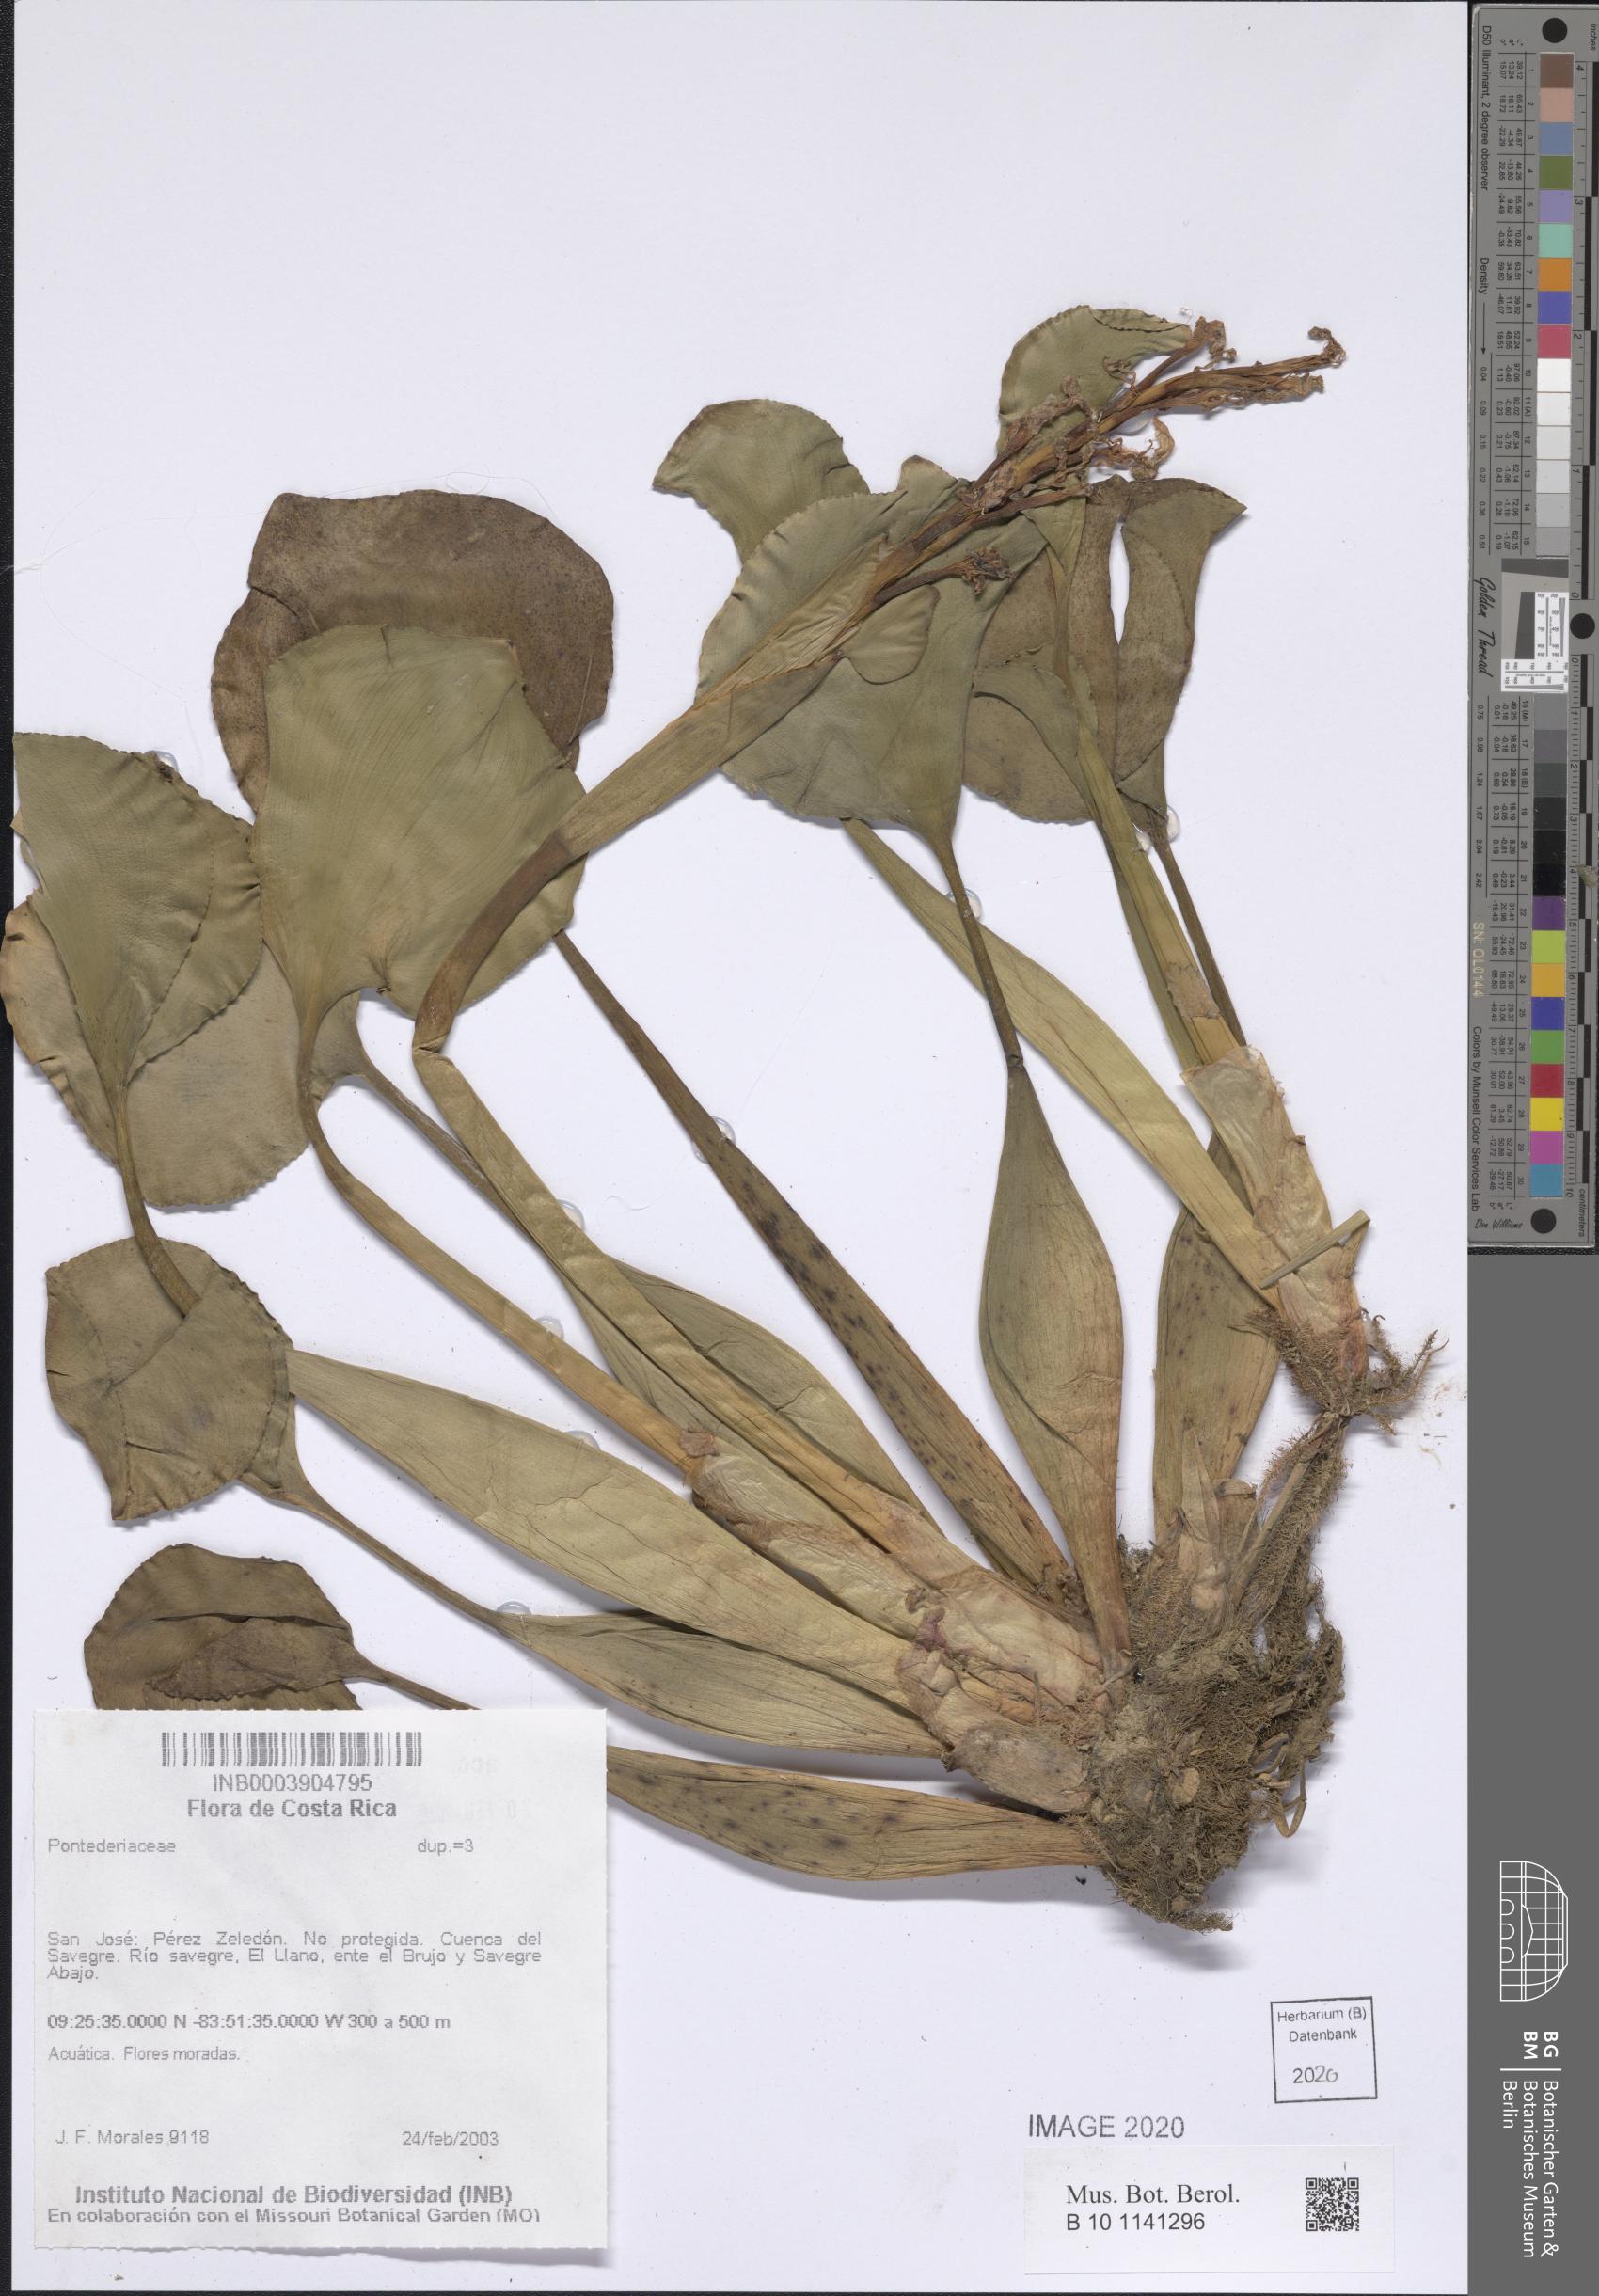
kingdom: Plantae
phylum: Tracheophyta
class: Liliopsida
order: Commelinales
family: Pontederiaceae
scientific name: Pontederiaceae
